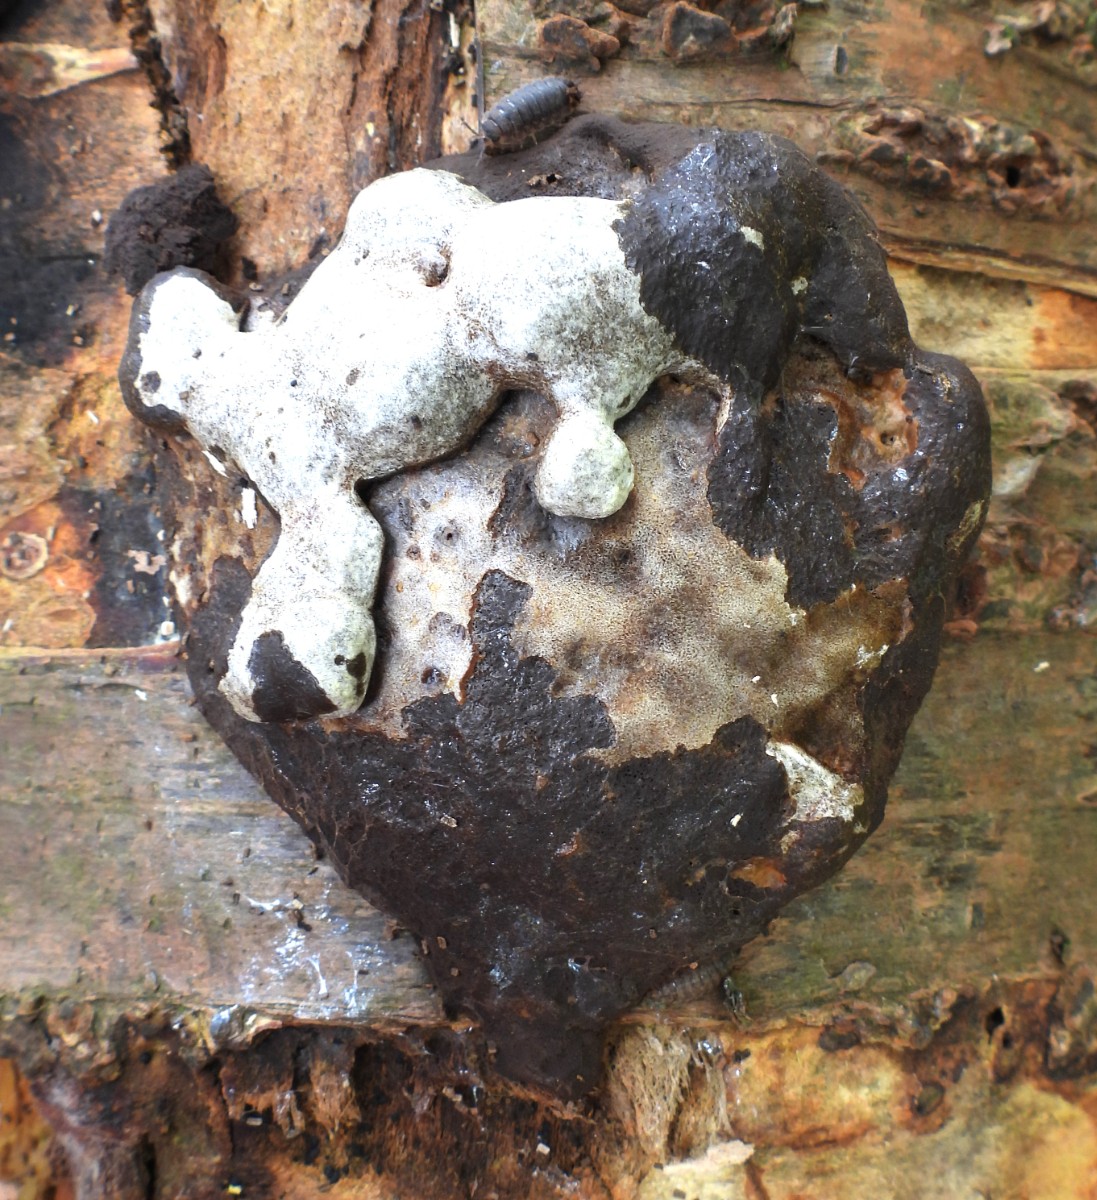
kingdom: Protozoa
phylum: Mycetozoa
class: Myxomycetes
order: Cribrariales
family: Tubiferaceae
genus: Reticularia
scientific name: Reticularia lycoperdon
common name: skinnende støvpude
